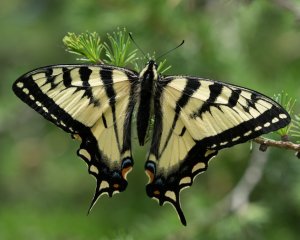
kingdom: Animalia
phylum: Arthropoda
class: Insecta
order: Lepidoptera
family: Papilionidae
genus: Pterourus
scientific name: Pterourus canadensis
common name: Canadian Tiger Swallowtail
